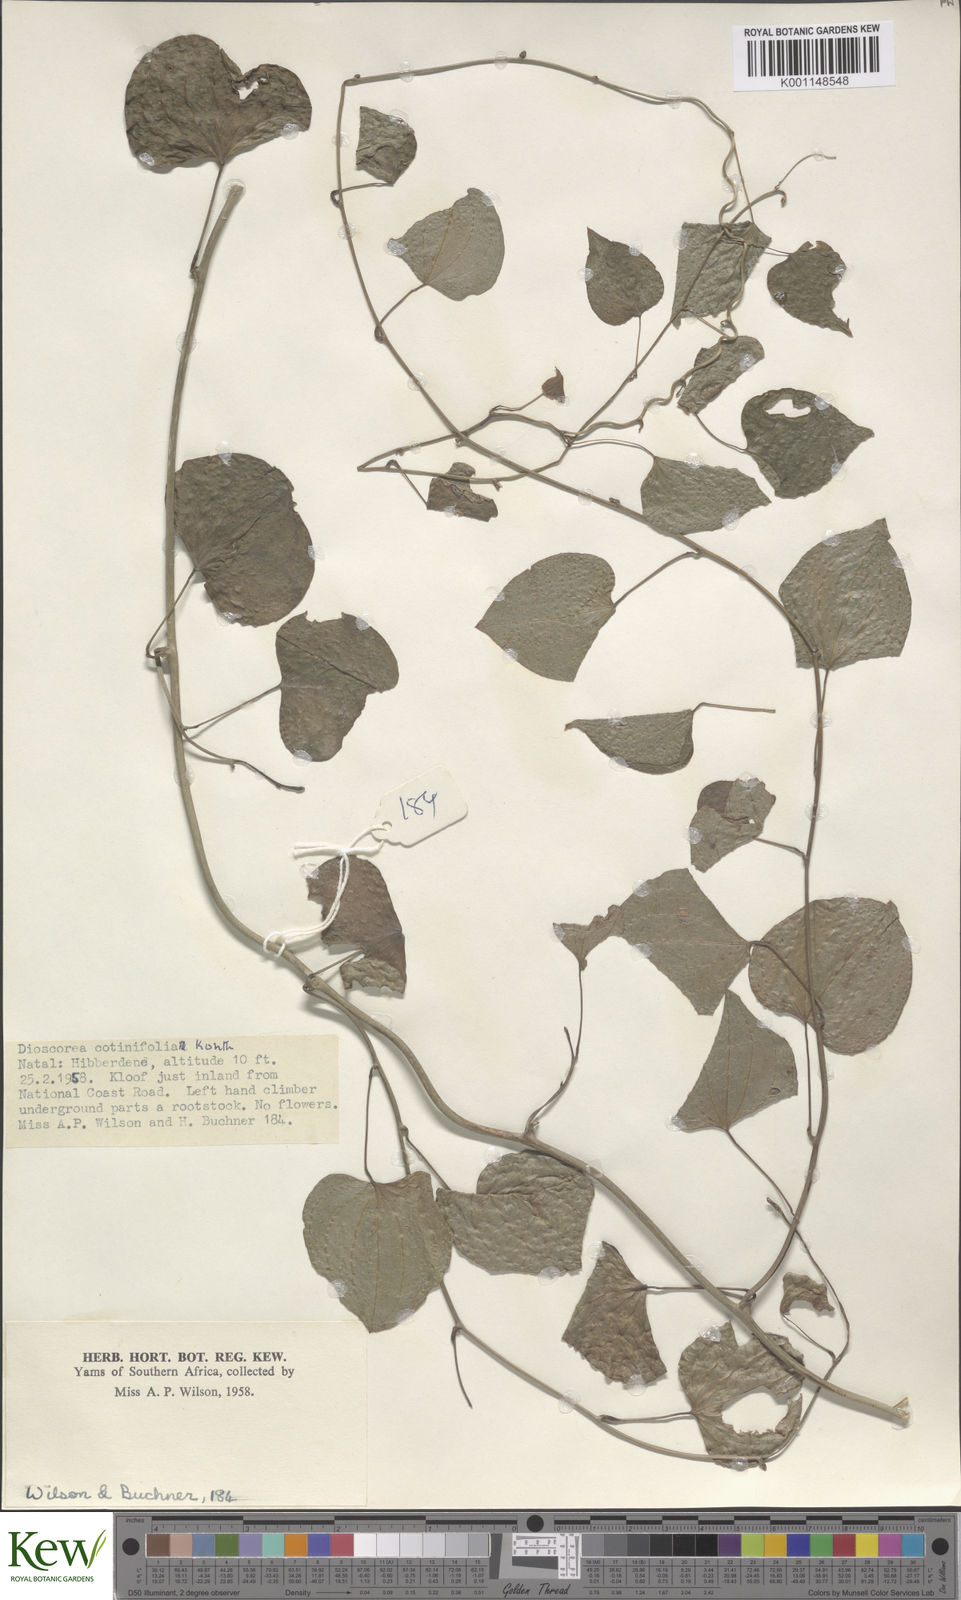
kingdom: Plantae
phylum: Tracheophyta
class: Liliopsida
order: Dioscoreales
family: Dioscoreaceae
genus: Dioscorea
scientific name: Dioscorea cotinifolia
